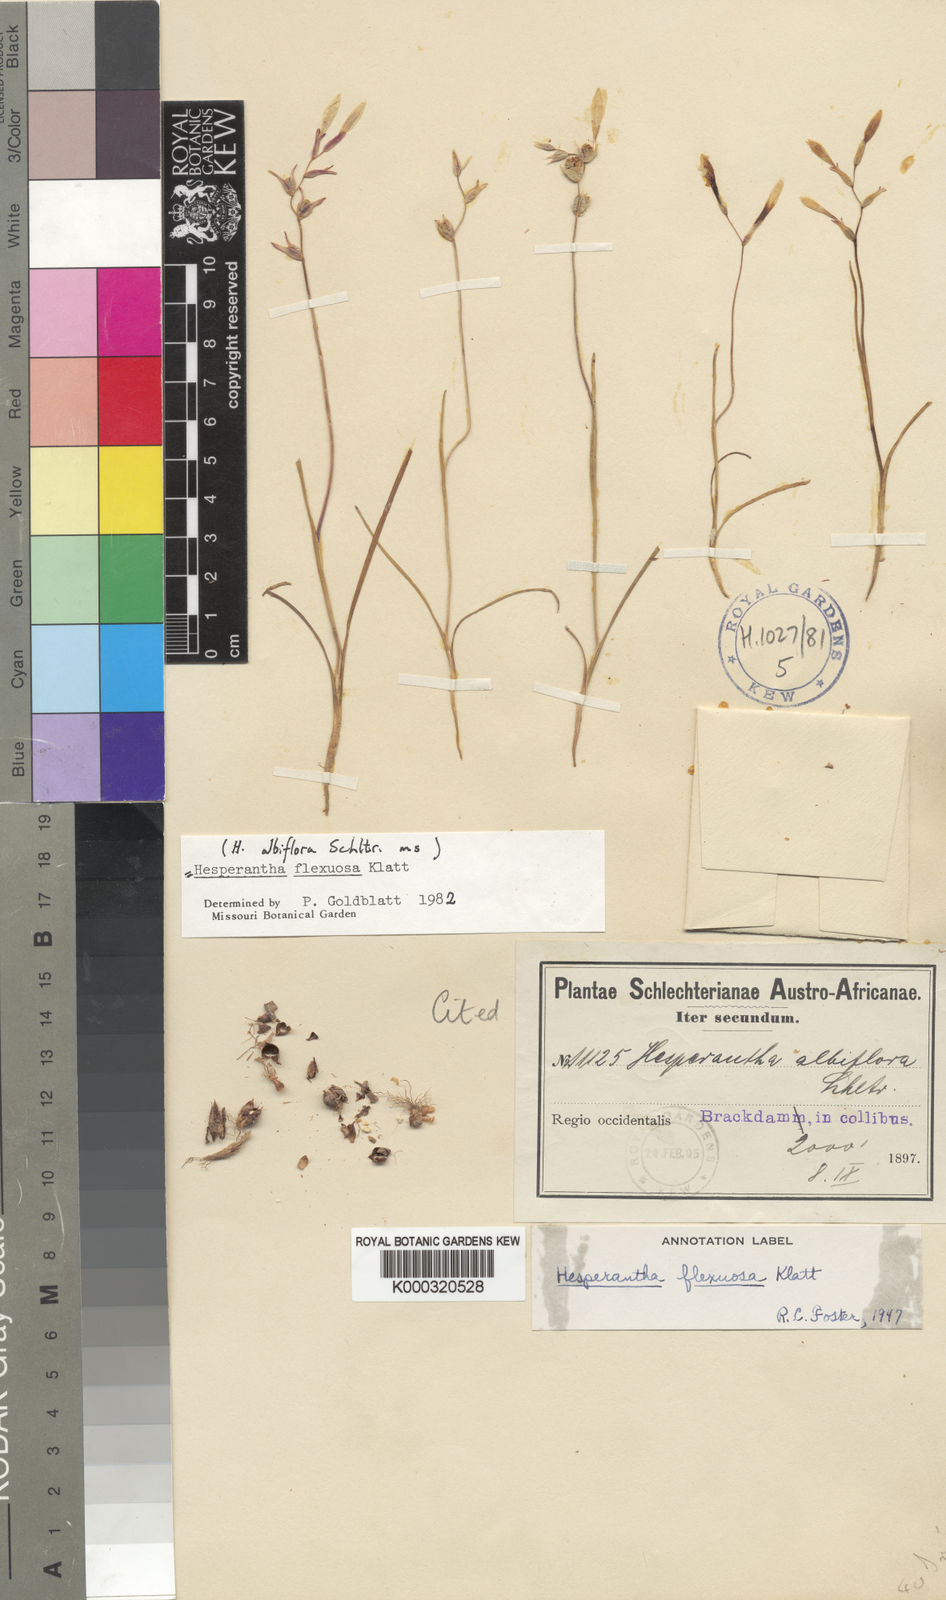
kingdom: Plantae
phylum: Tracheophyta
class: Liliopsida
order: Asparagales
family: Iridaceae
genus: Hesperantha
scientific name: Hesperantha flexuosa
